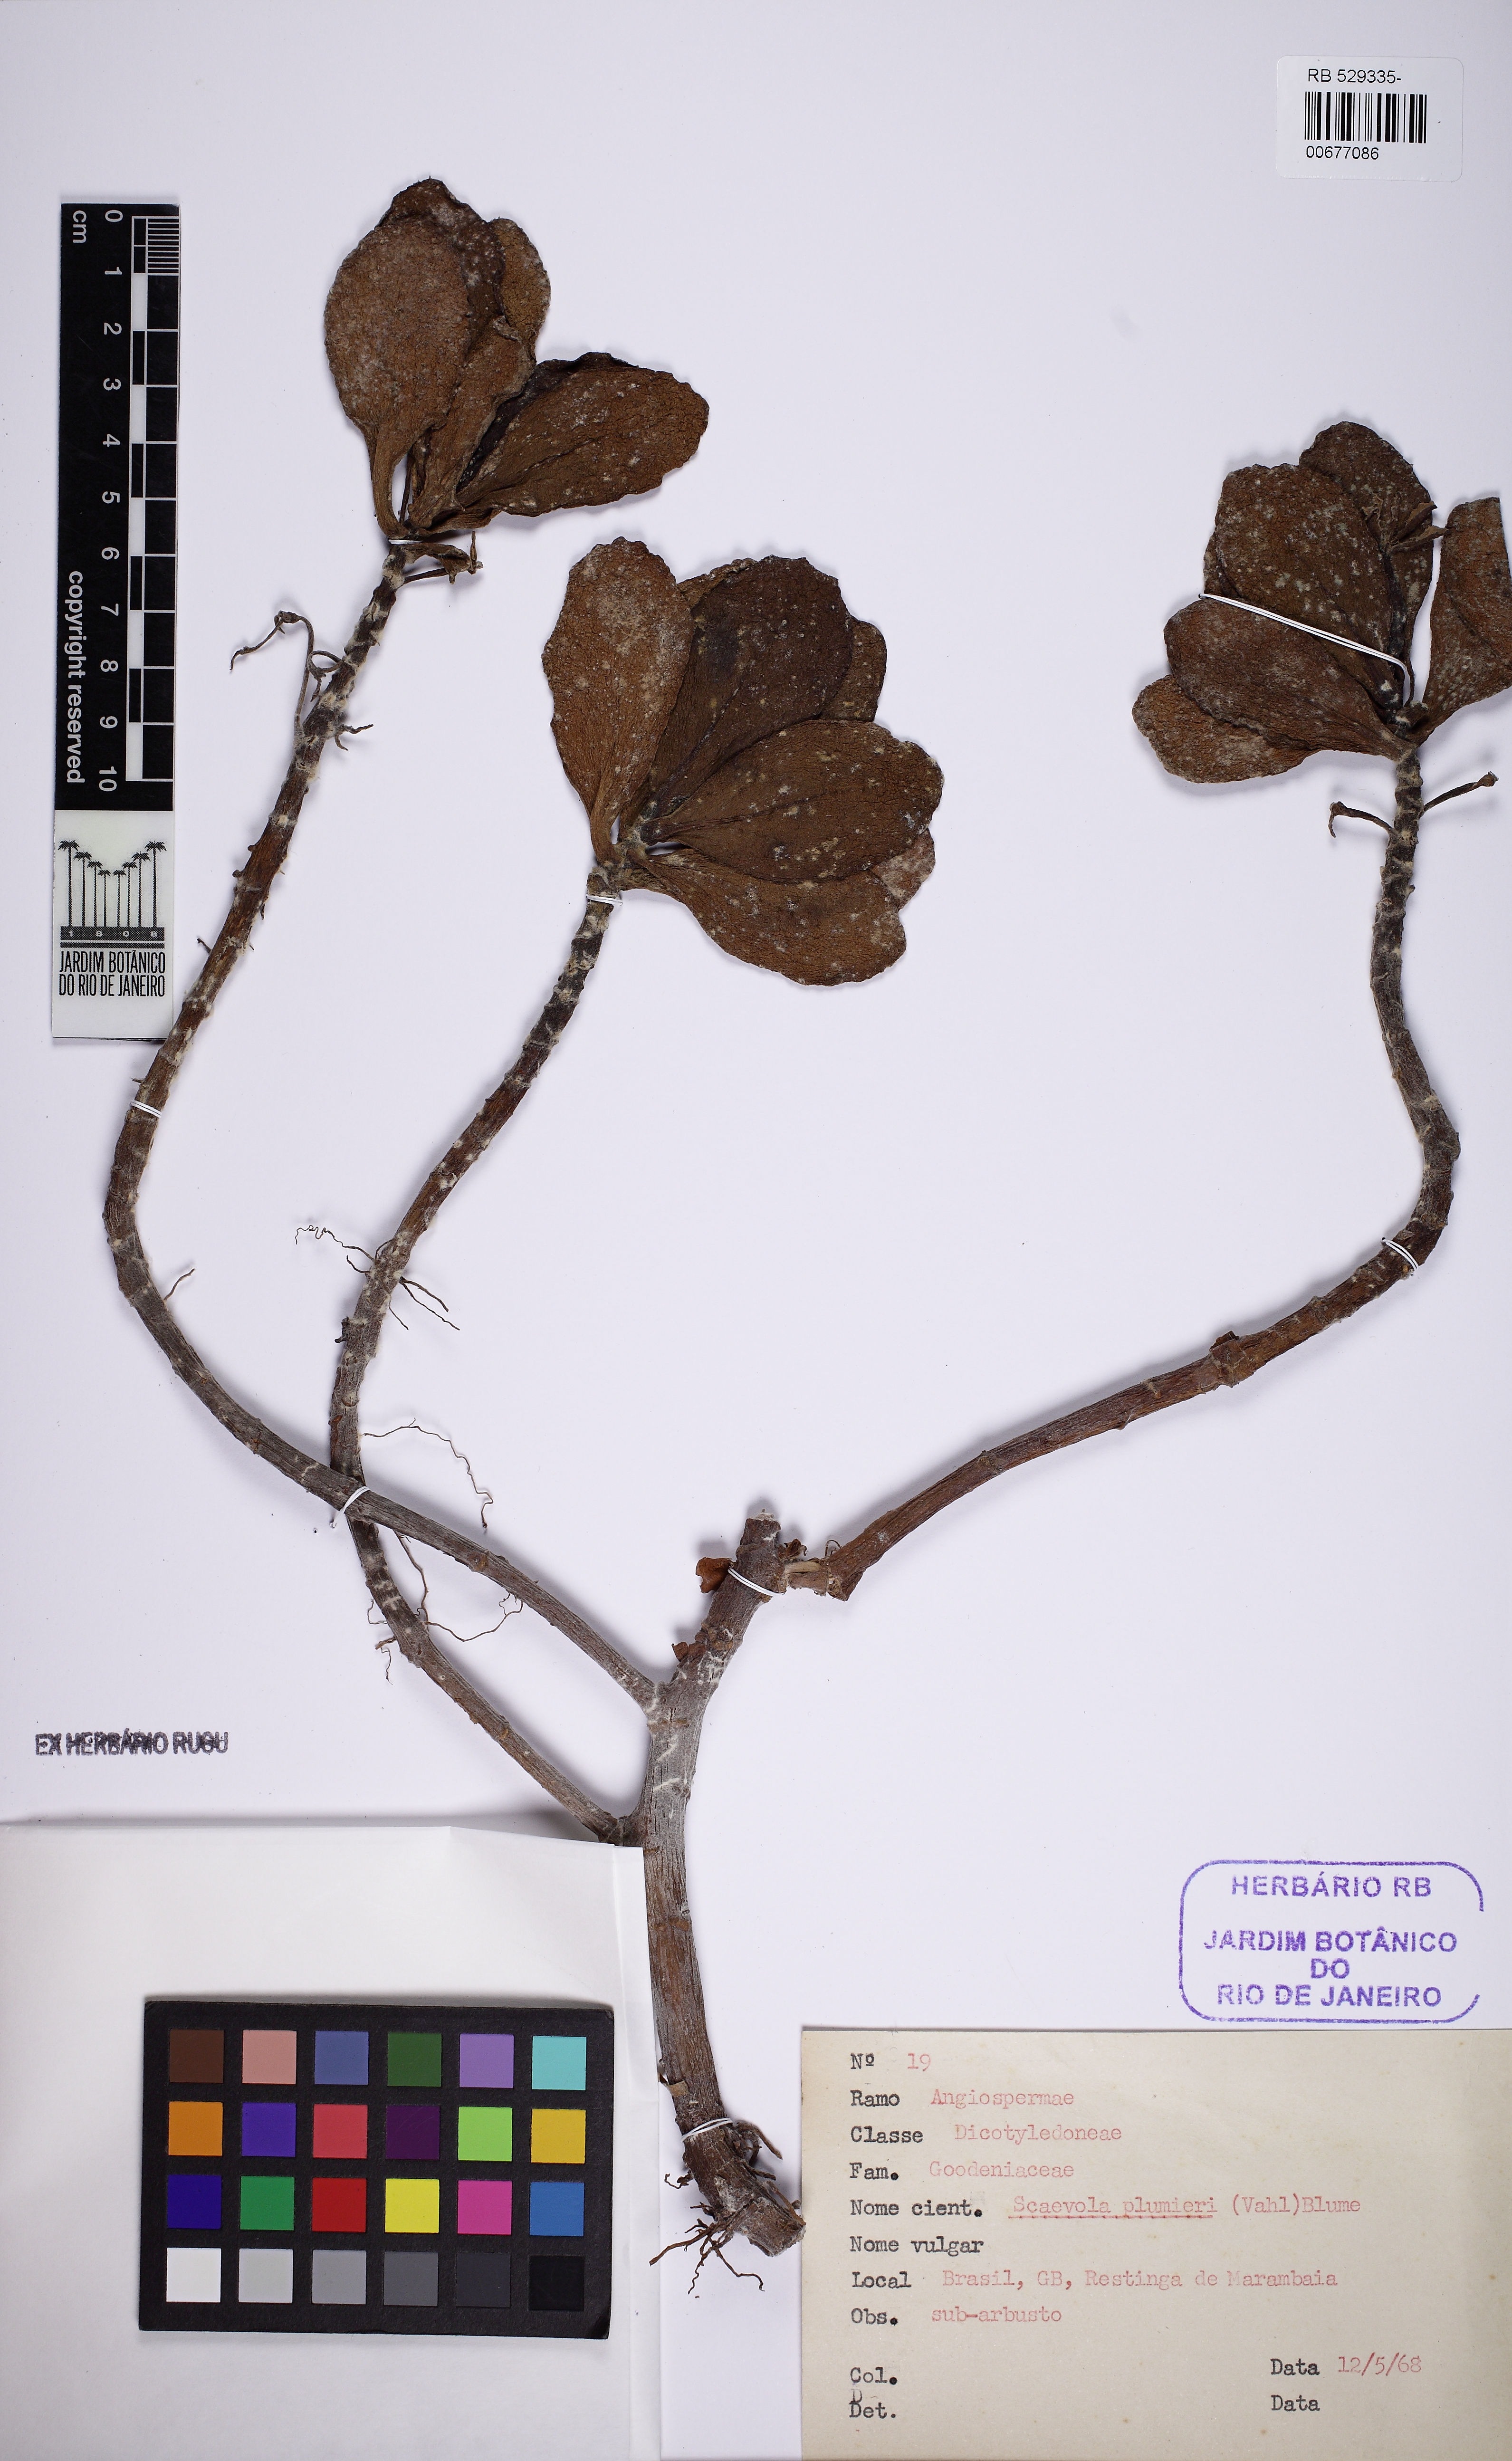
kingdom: Plantae
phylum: Tracheophyta
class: Magnoliopsida
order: Asterales
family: Goodeniaceae
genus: Scaevola
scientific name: Scaevola plumieri
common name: Gull feed
